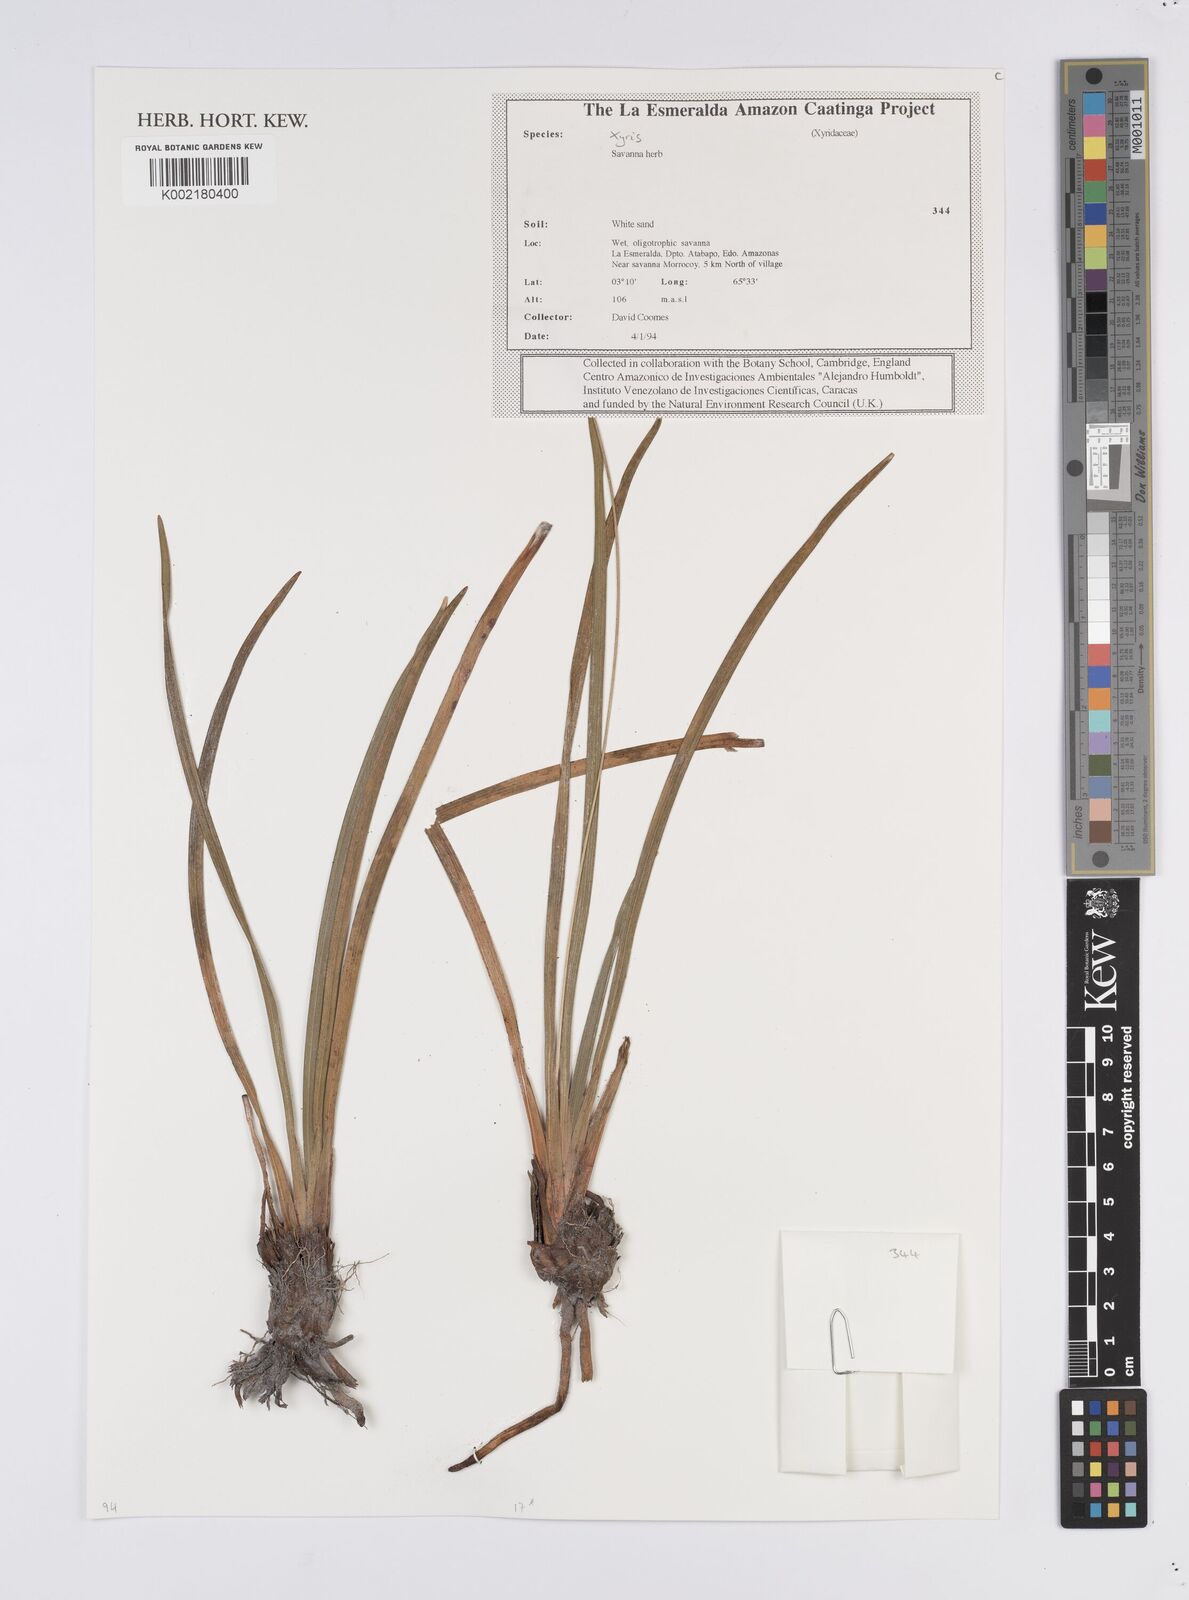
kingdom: Plantae
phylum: Tracheophyta
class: Liliopsida
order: Poales
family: Xyridaceae
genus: Xyris
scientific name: Xyris
